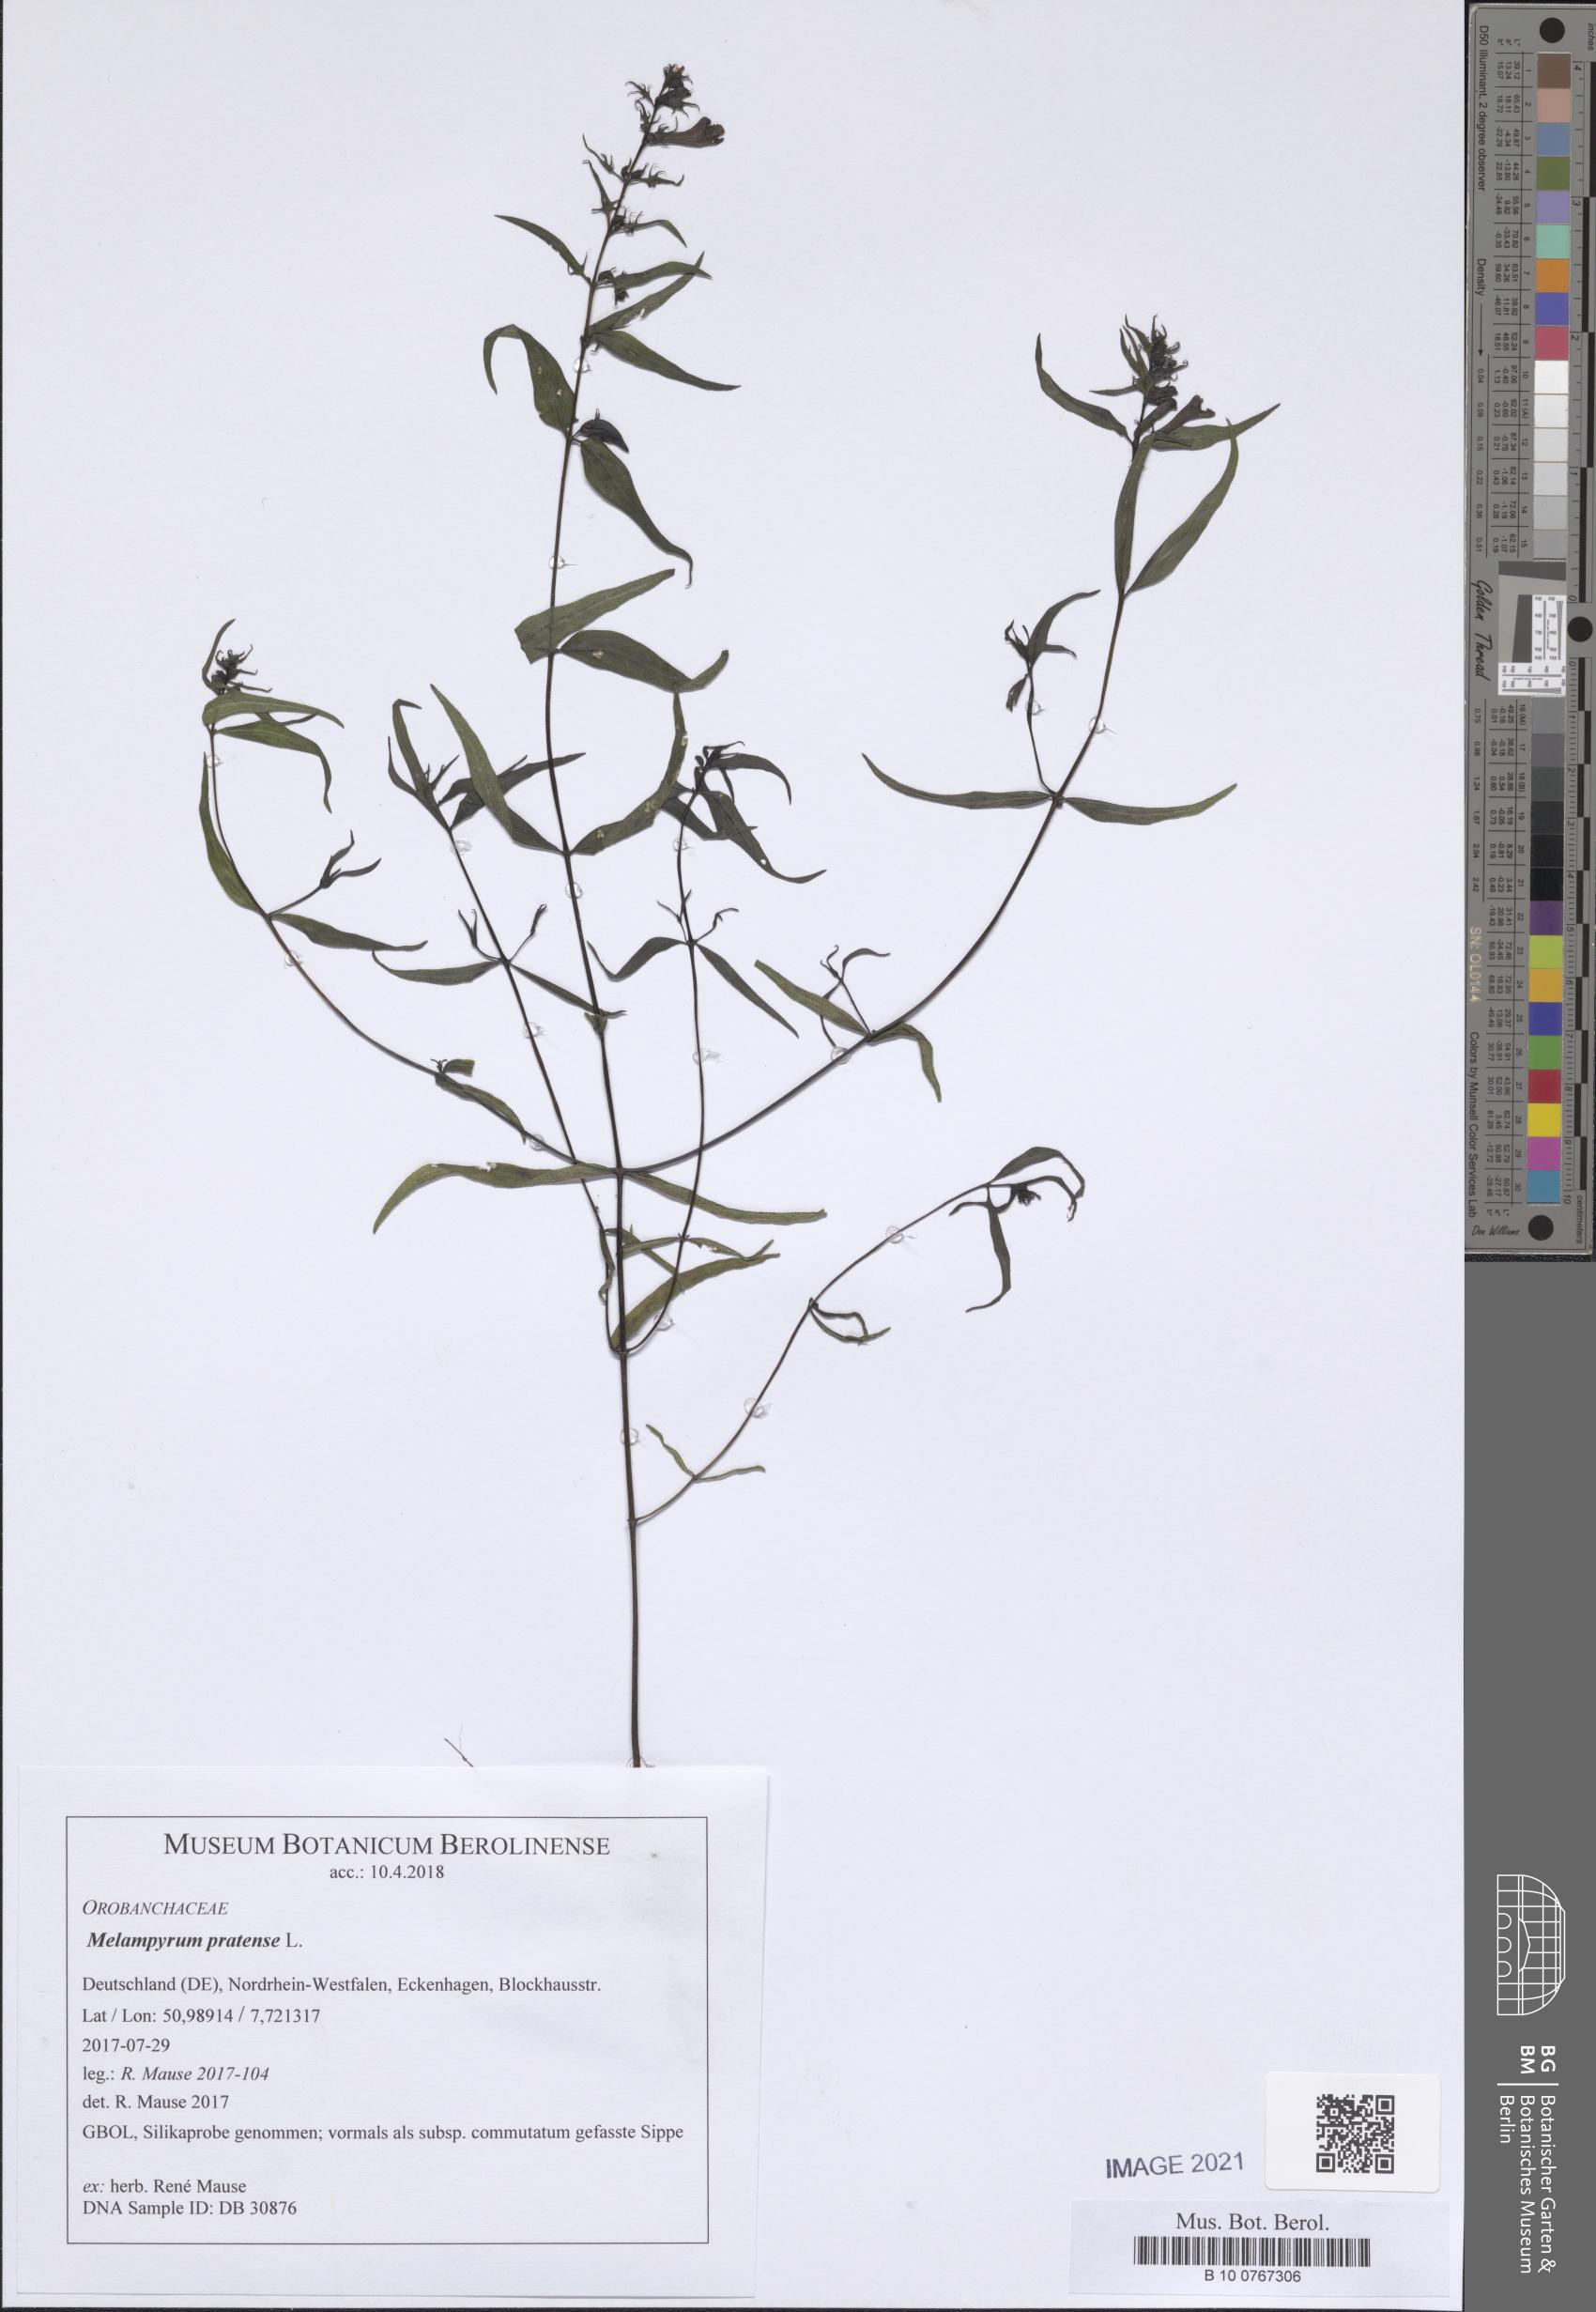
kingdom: Plantae
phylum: Tracheophyta
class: Magnoliopsida
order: Lamiales
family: Orobanchaceae
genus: Melampyrum
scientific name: Melampyrum pratense
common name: Common cow-wheat
